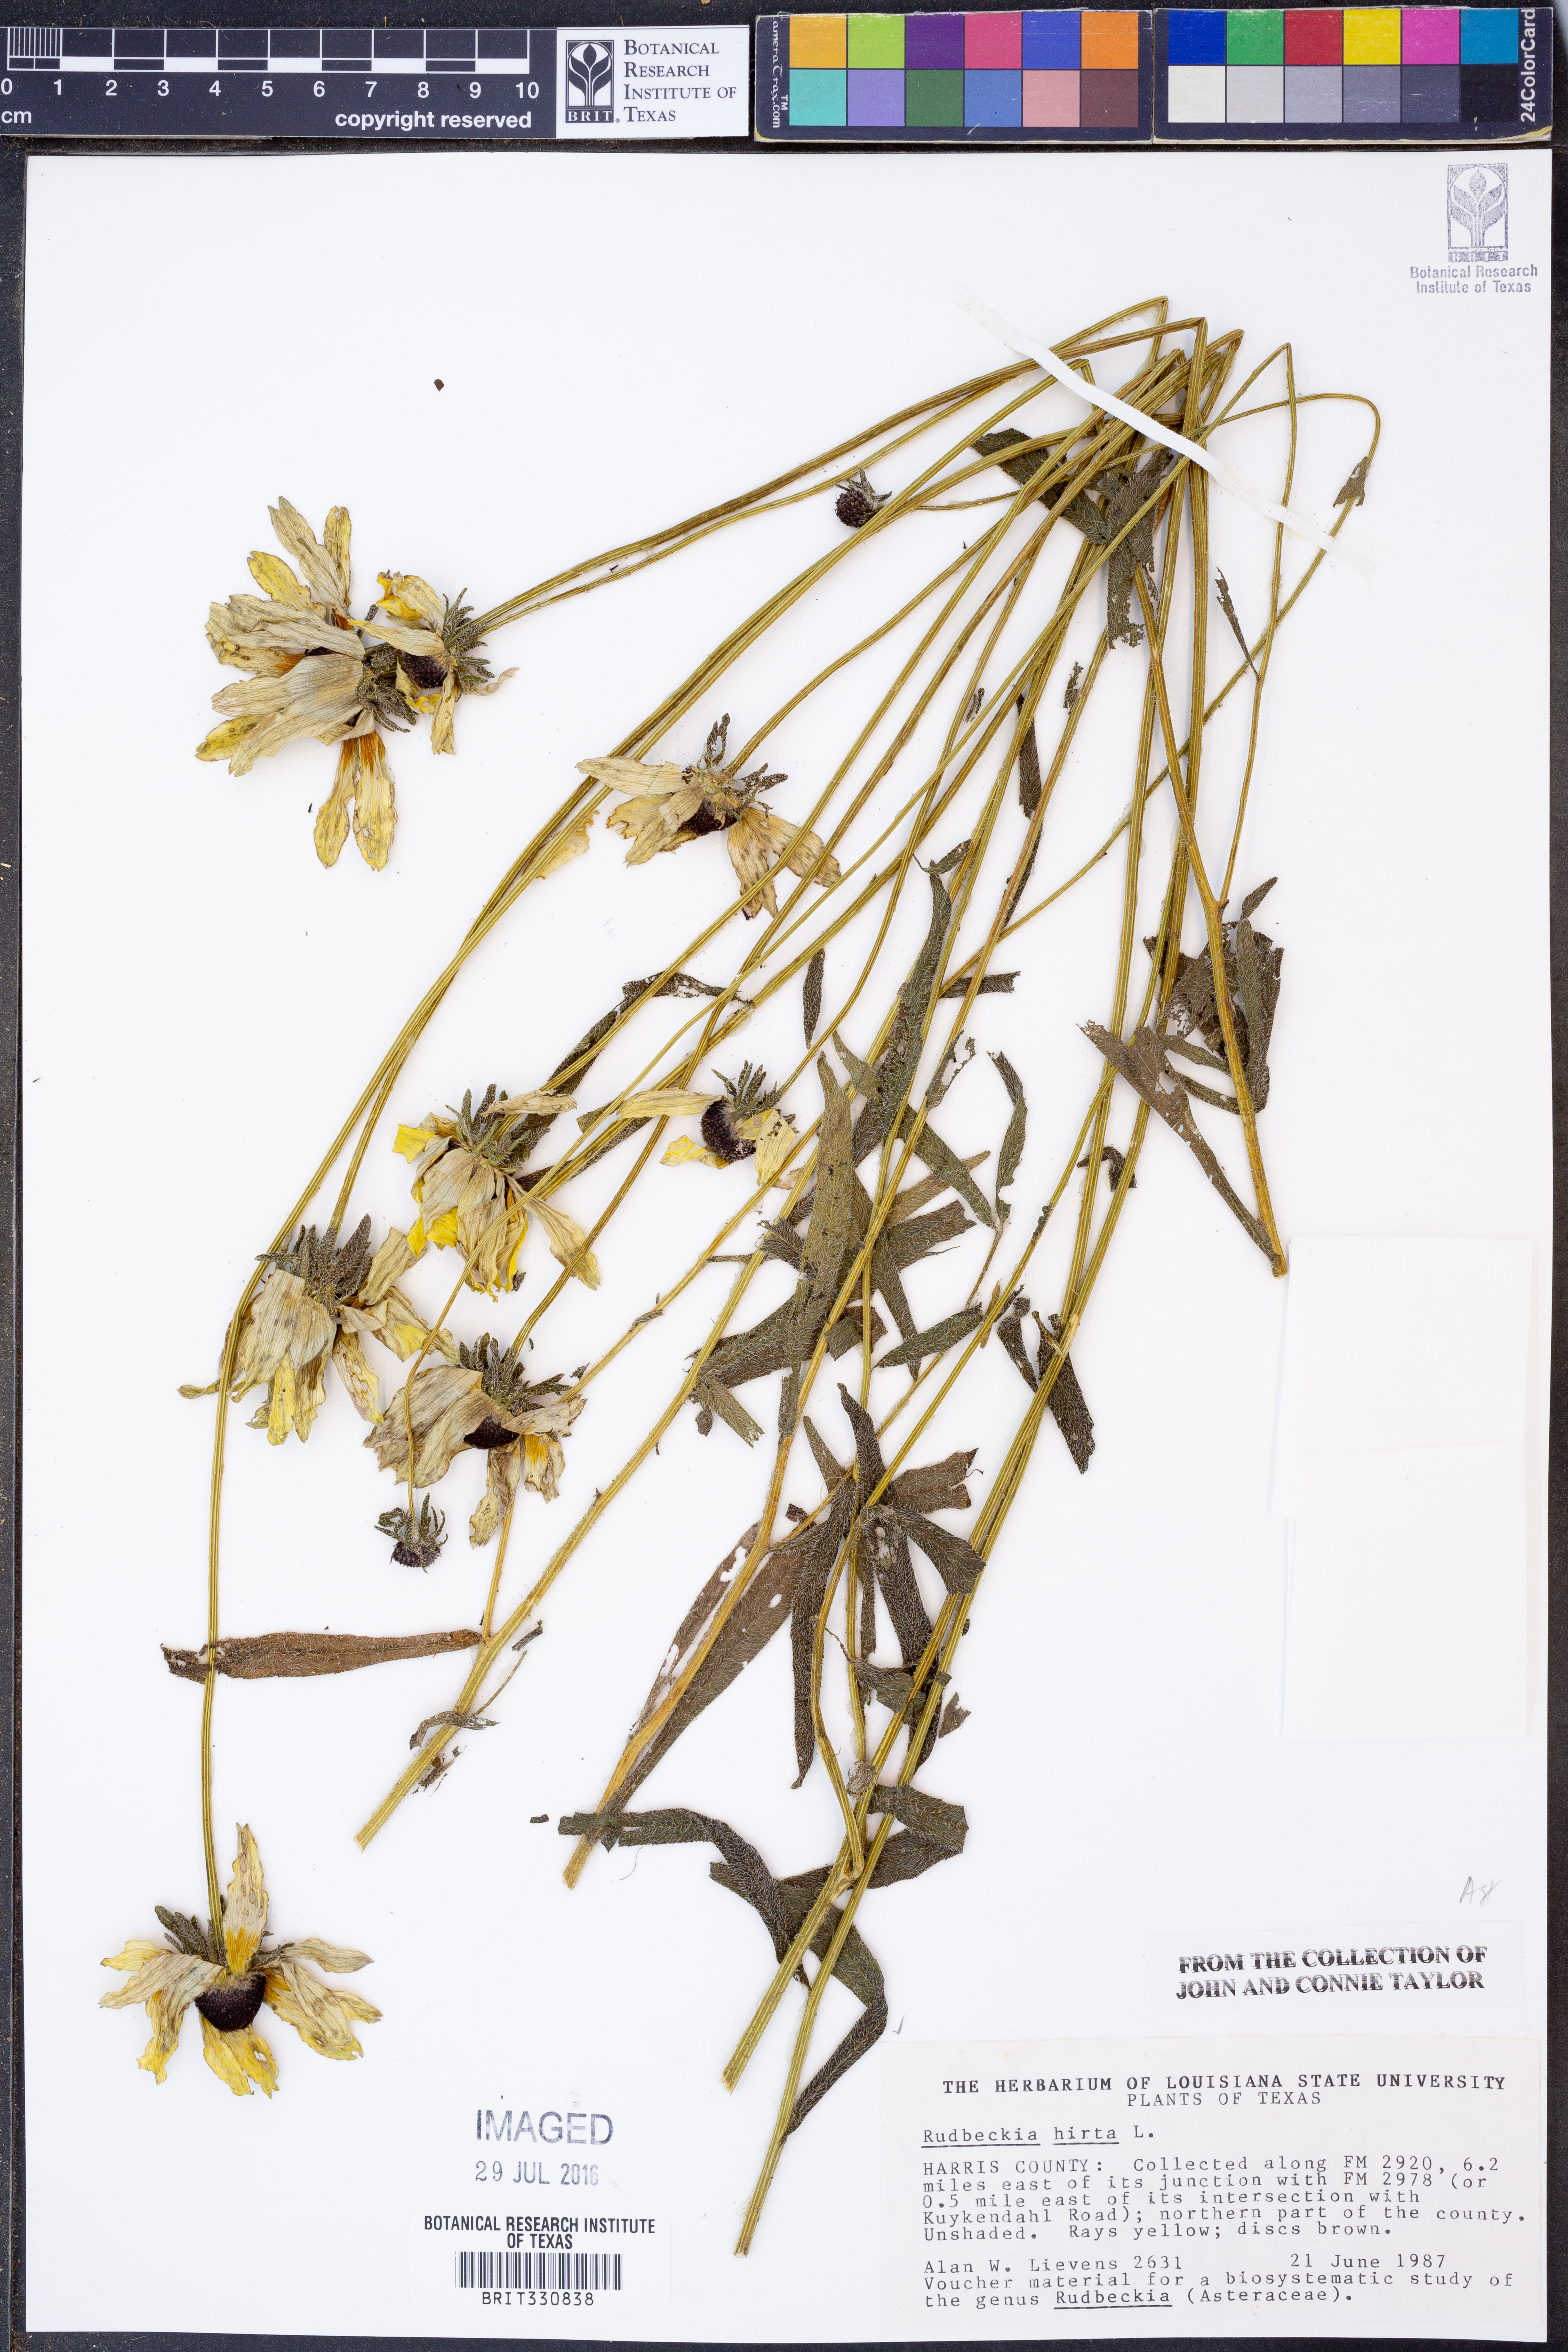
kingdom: Plantae
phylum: Tracheophyta
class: Magnoliopsida
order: Asterales
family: Asteraceae
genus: Rudbeckia
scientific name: Rudbeckia hirta
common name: Black-eyed-susan
